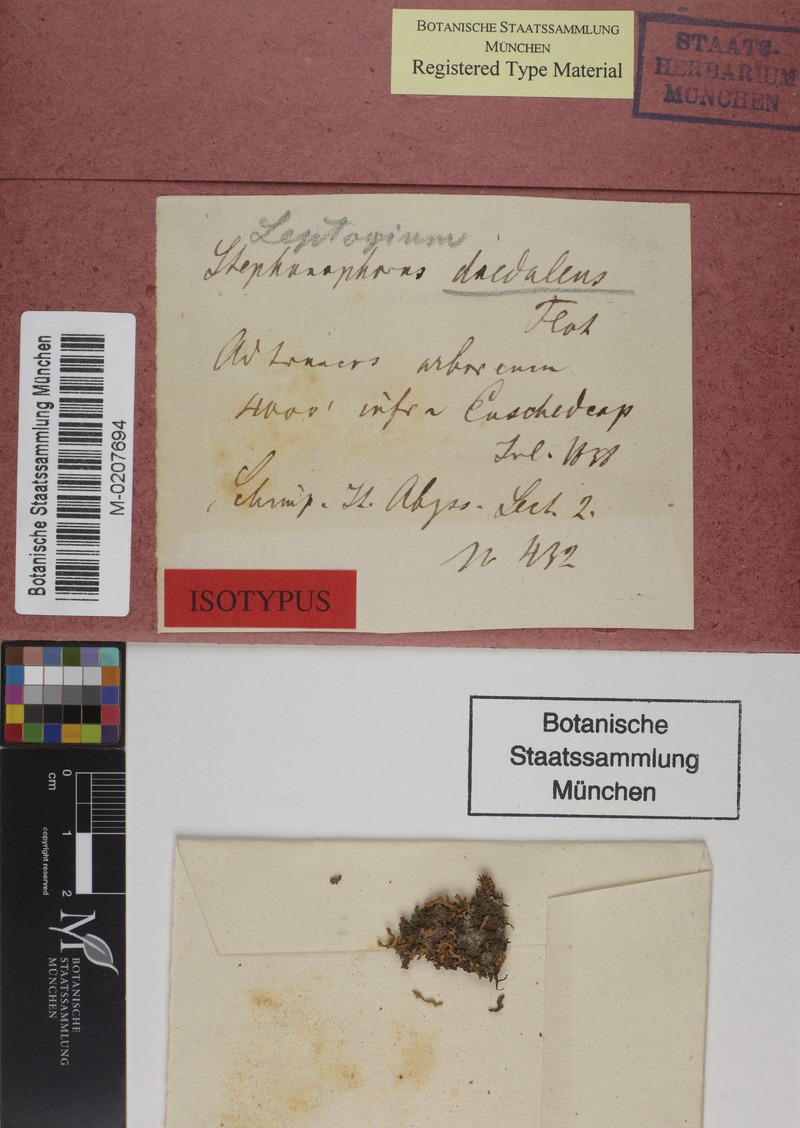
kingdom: Fungi
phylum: Ascomycota
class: Lecanoromycetes
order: Peltigerales
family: Collemataceae
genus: Leptogium
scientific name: Leptogium daedalum
